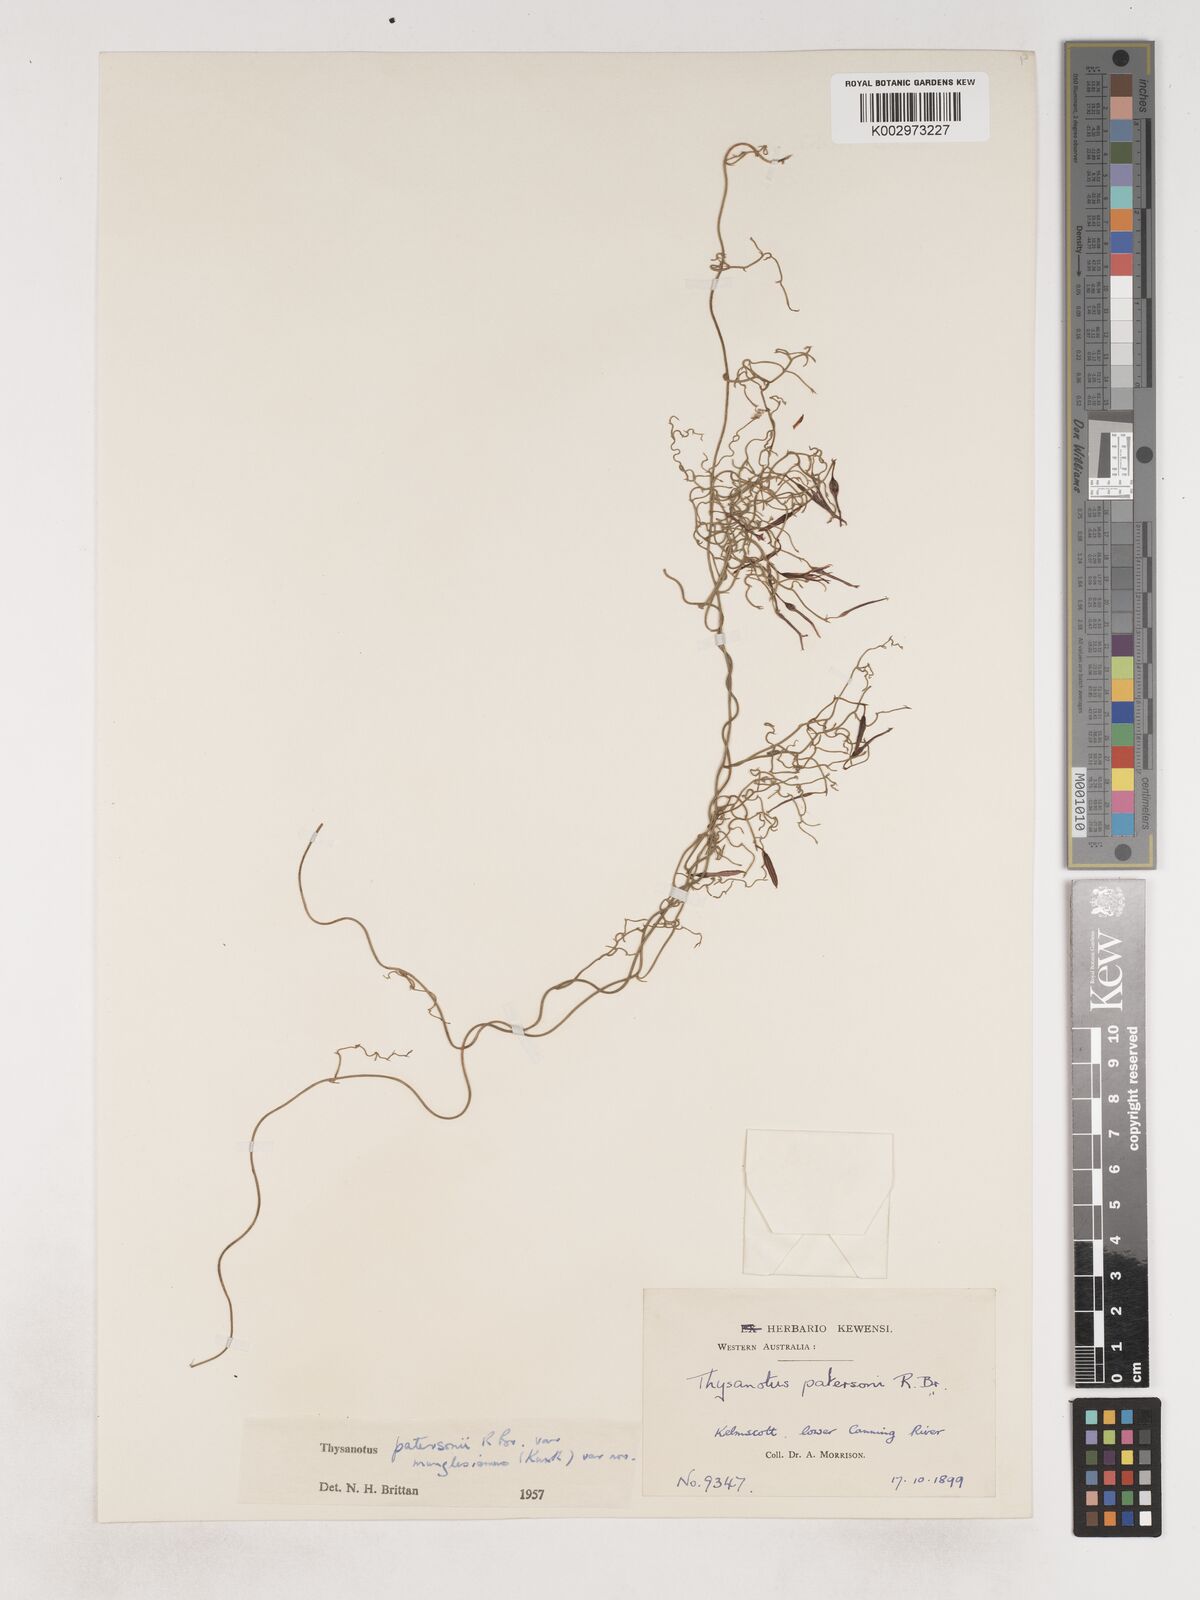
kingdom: Plantae
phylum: Tracheophyta
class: Liliopsida
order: Asparagales
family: Asparagaceae
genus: Thysanotus
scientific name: Thysanotus manglesianus
